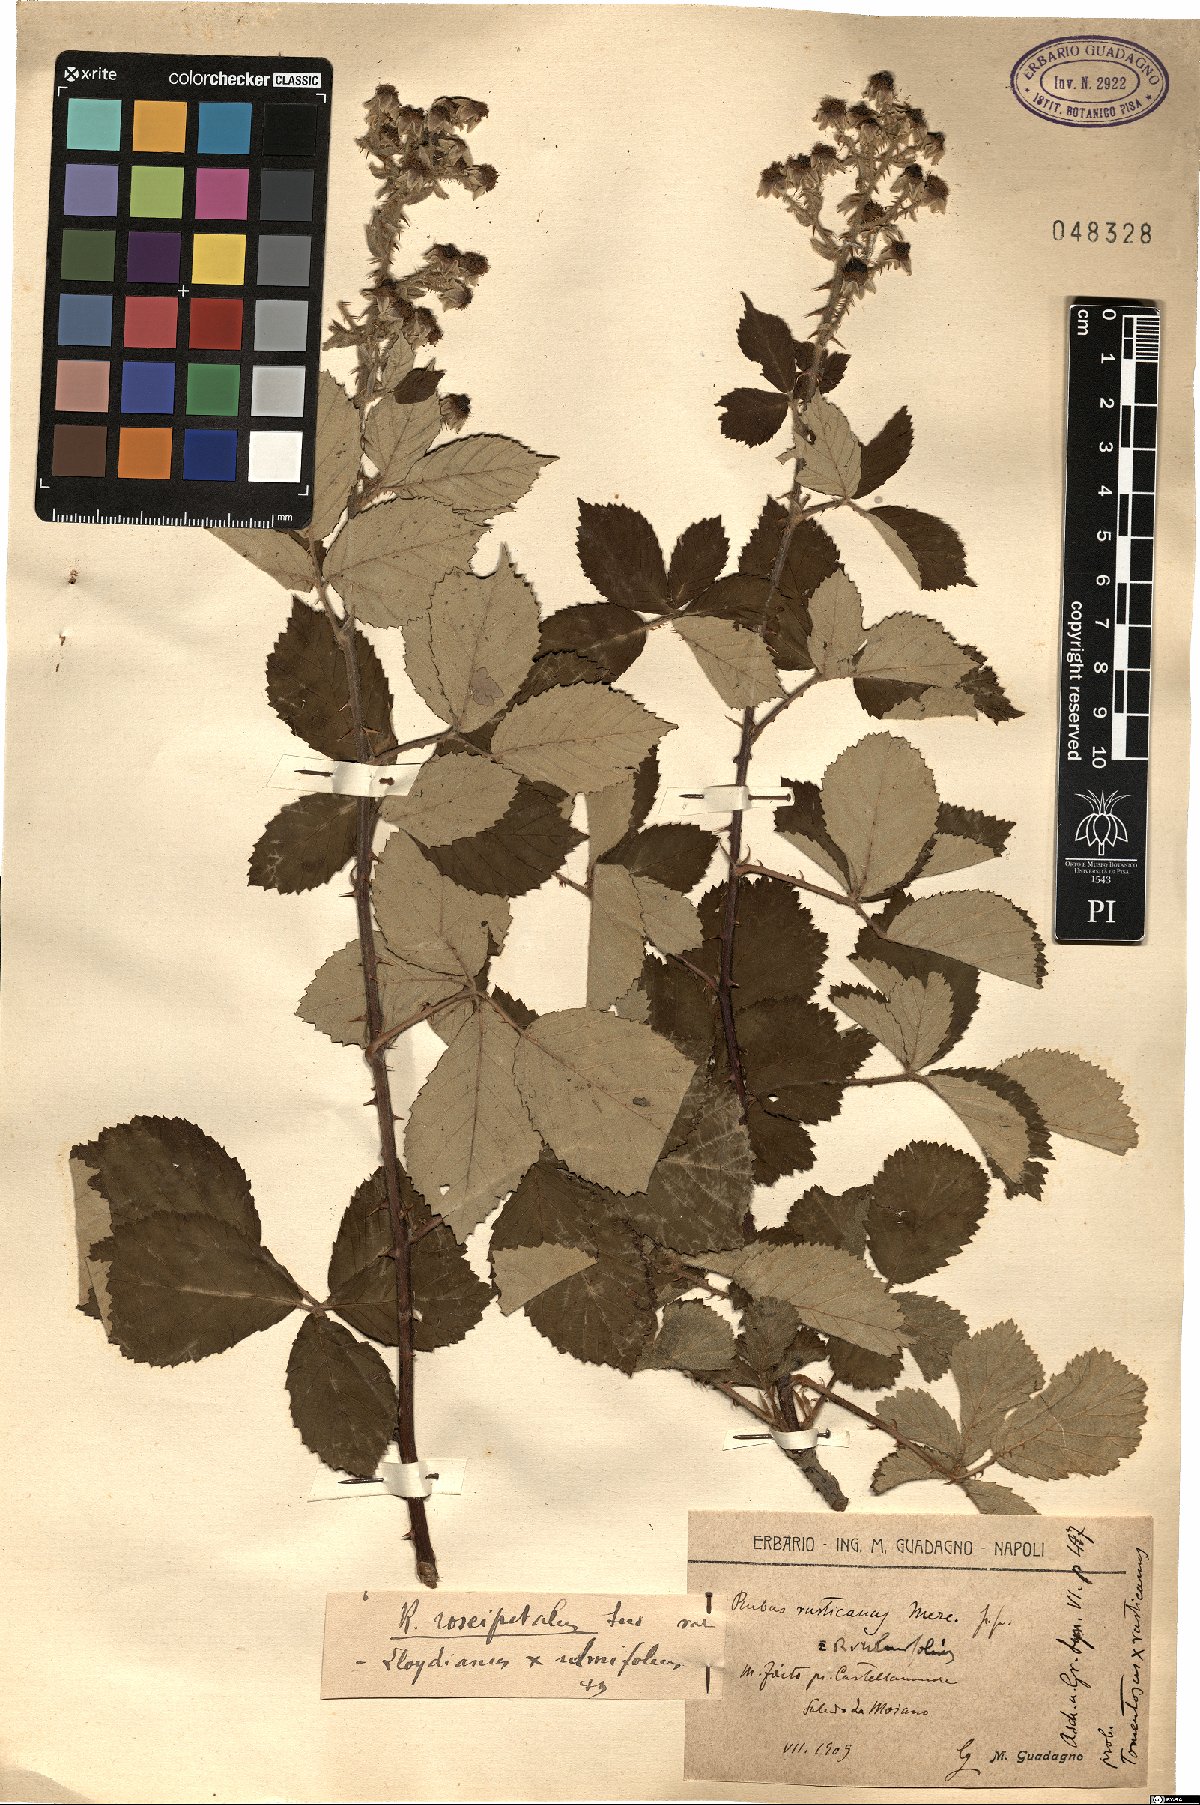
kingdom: Plantae
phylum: Tracheophyta
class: Magnoliopsida
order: Rosales
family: Rosaceae
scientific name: Rosaceae
